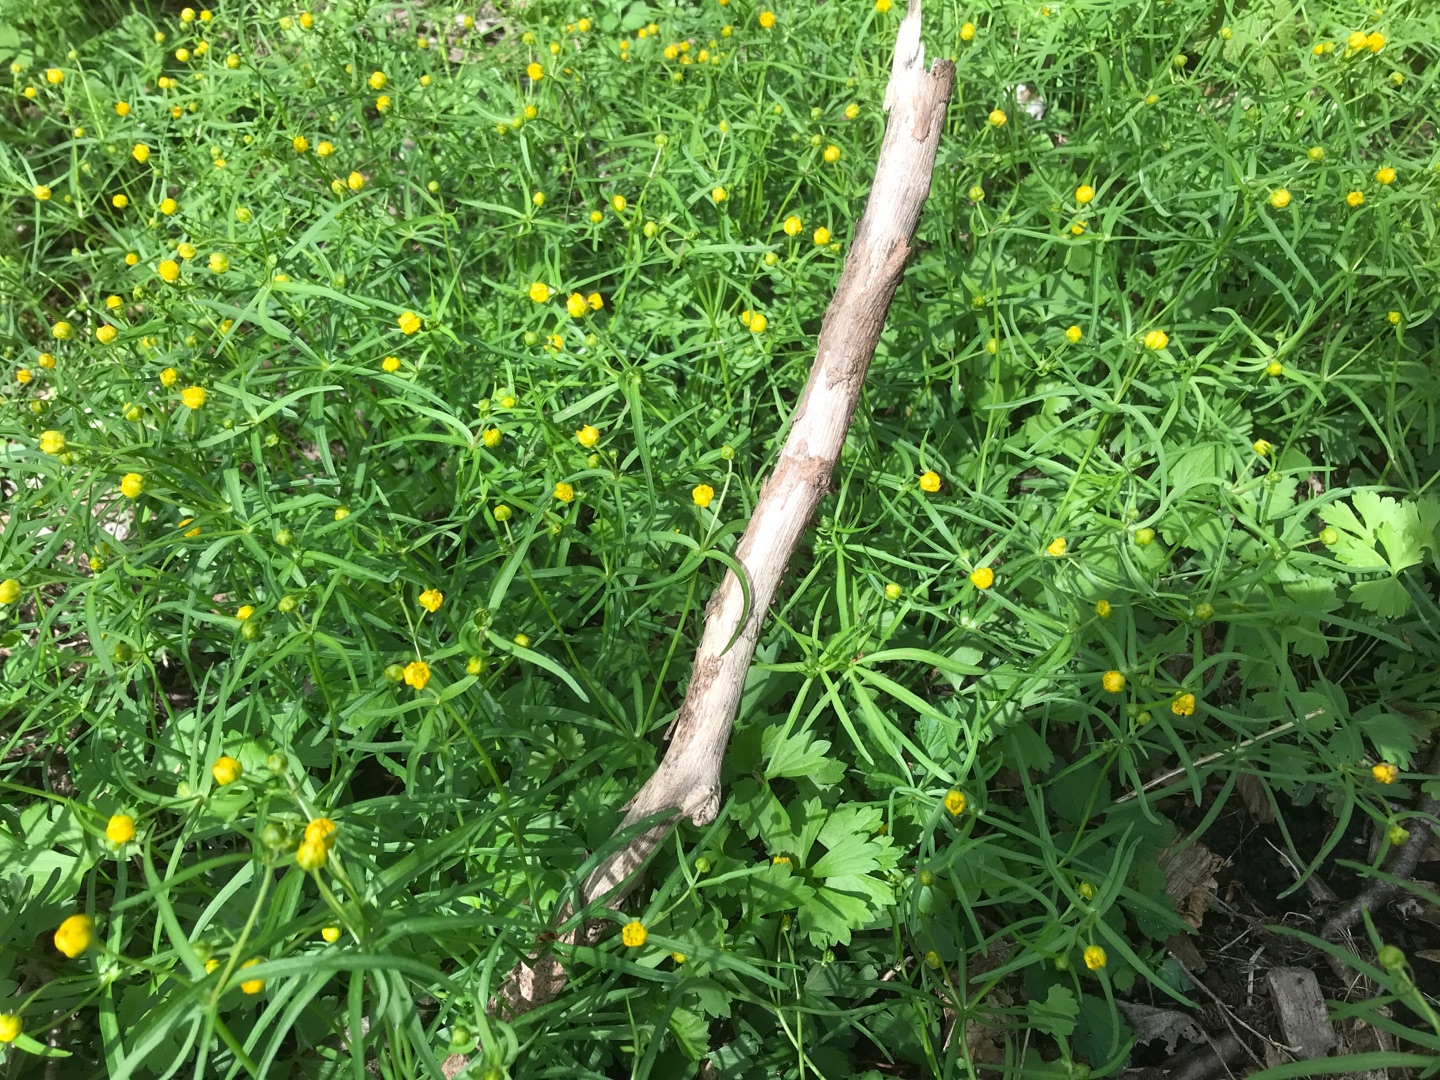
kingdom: Plantae
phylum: Tracheophyta
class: Magnoliopsida
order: Ranunculales
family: Ranunculaceae
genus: Ranunculus
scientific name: Ranunculus auricomus
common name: Nyrebladet ranunkel
